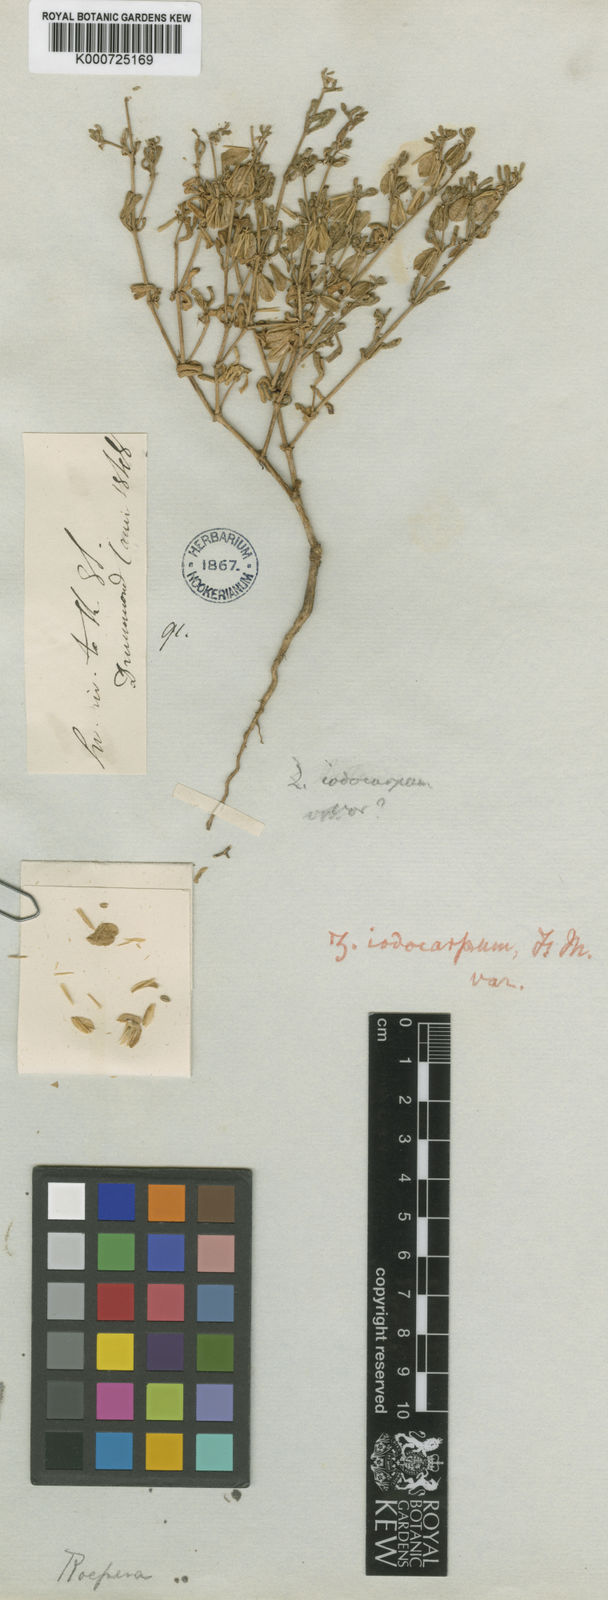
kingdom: Plantae
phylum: Tracheophyta
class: Magnoliopsida
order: Zygophyllales
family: Zygophyllaceae
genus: Roepera
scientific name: Roepera ovata
